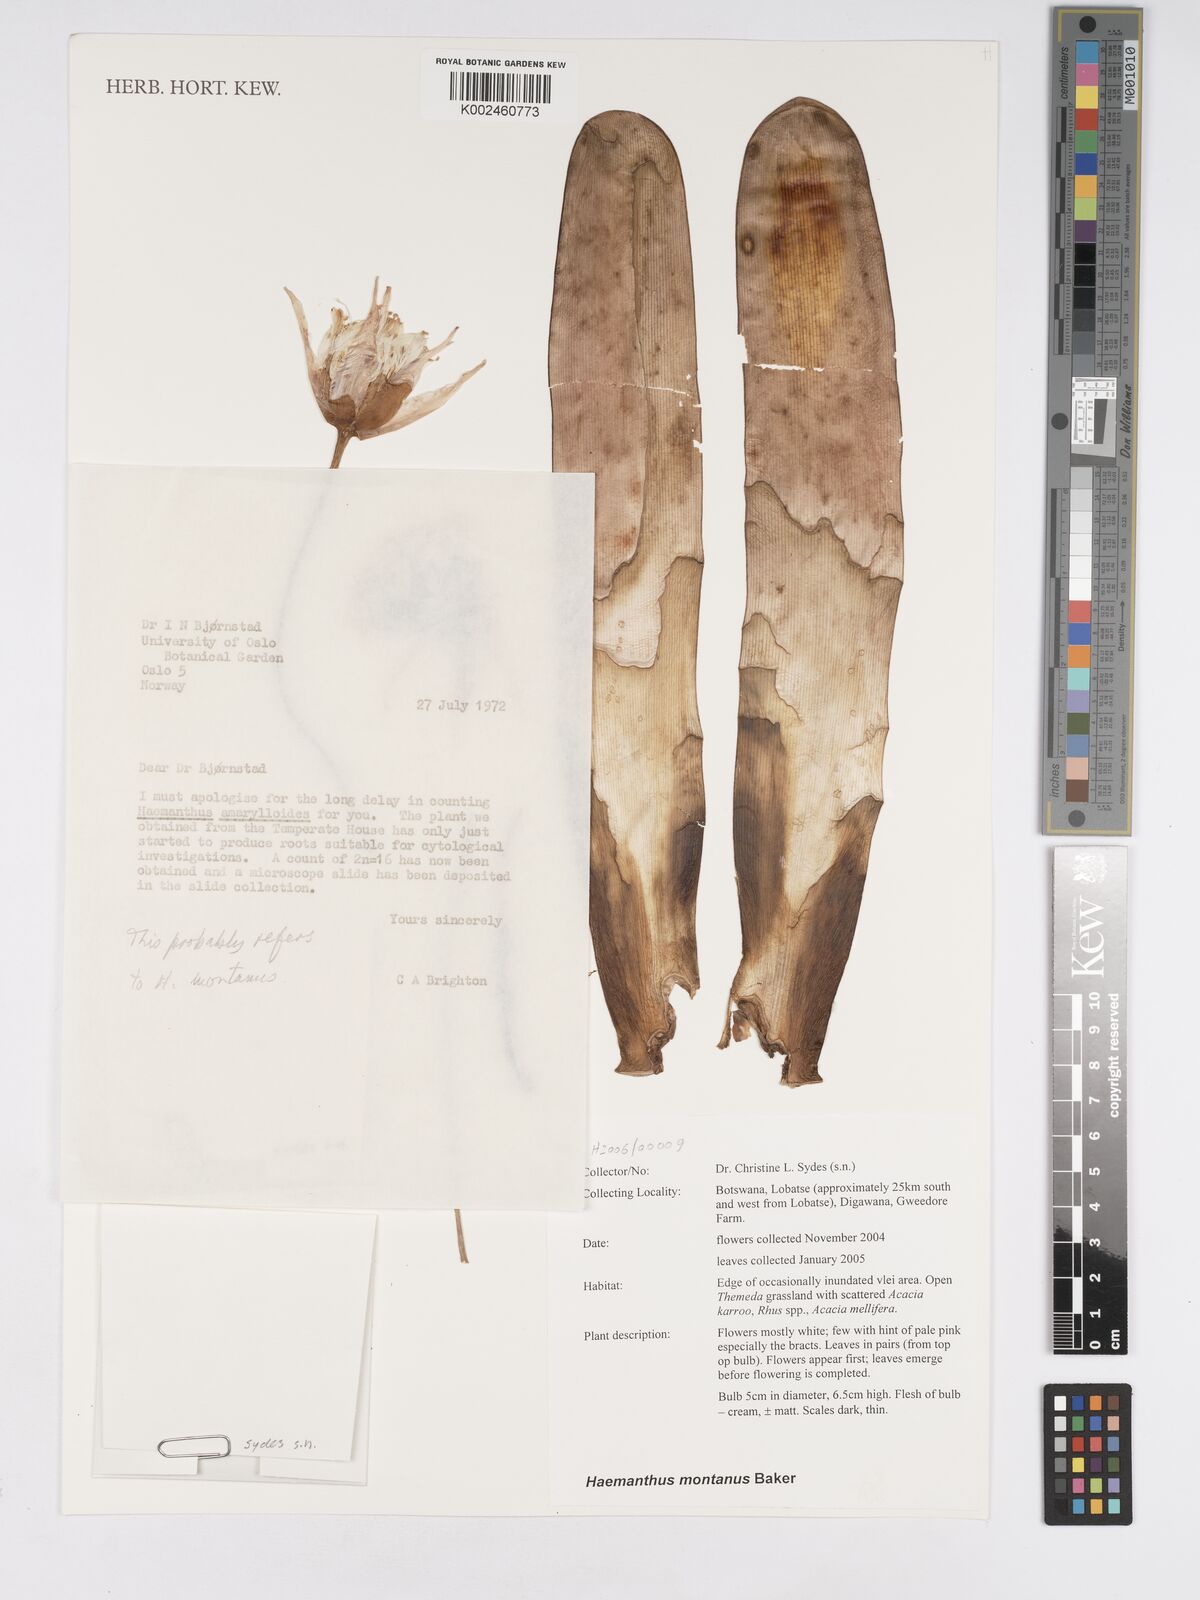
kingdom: Plantae
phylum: Tracheophyta
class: Liliopsida
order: Asparagales
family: Amaryllidaceae
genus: Haemanthus
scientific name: Haemanthus montanus
